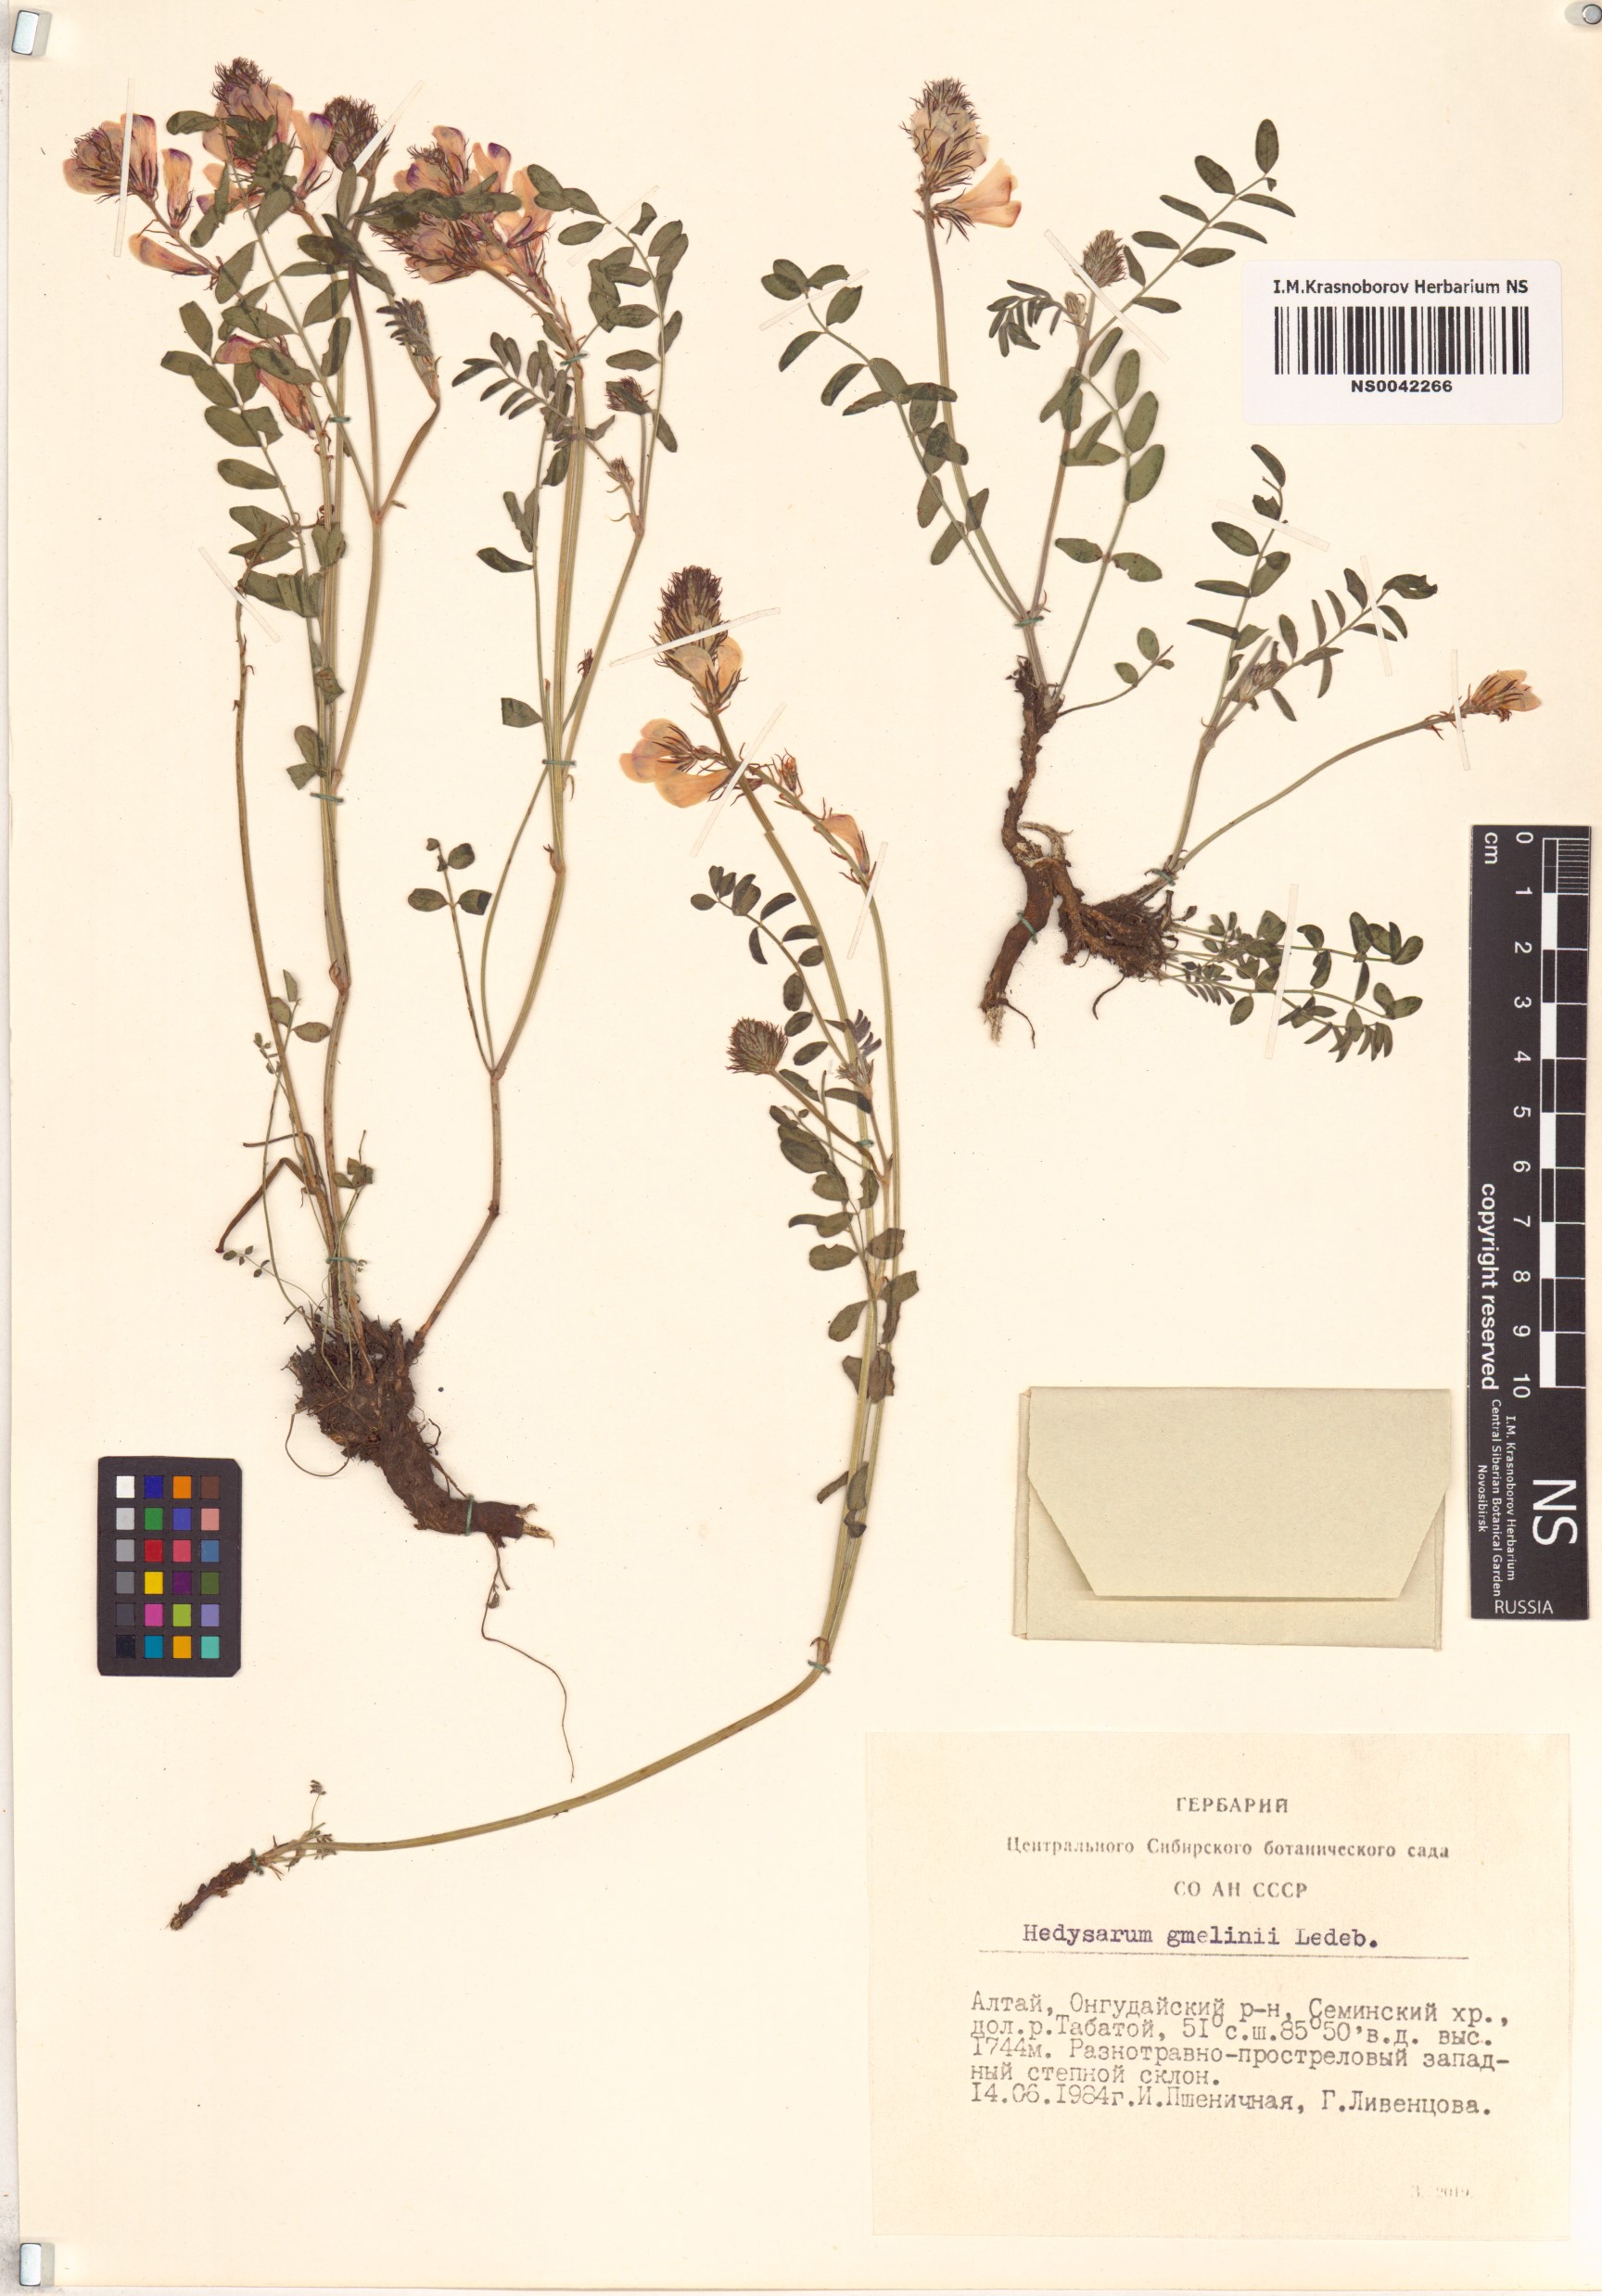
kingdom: Plantae
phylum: Tracheophyta
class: Magnoliopsida
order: Fabales
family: Fabaceae
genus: Hedysarum
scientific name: Hedysarum gmelinii
